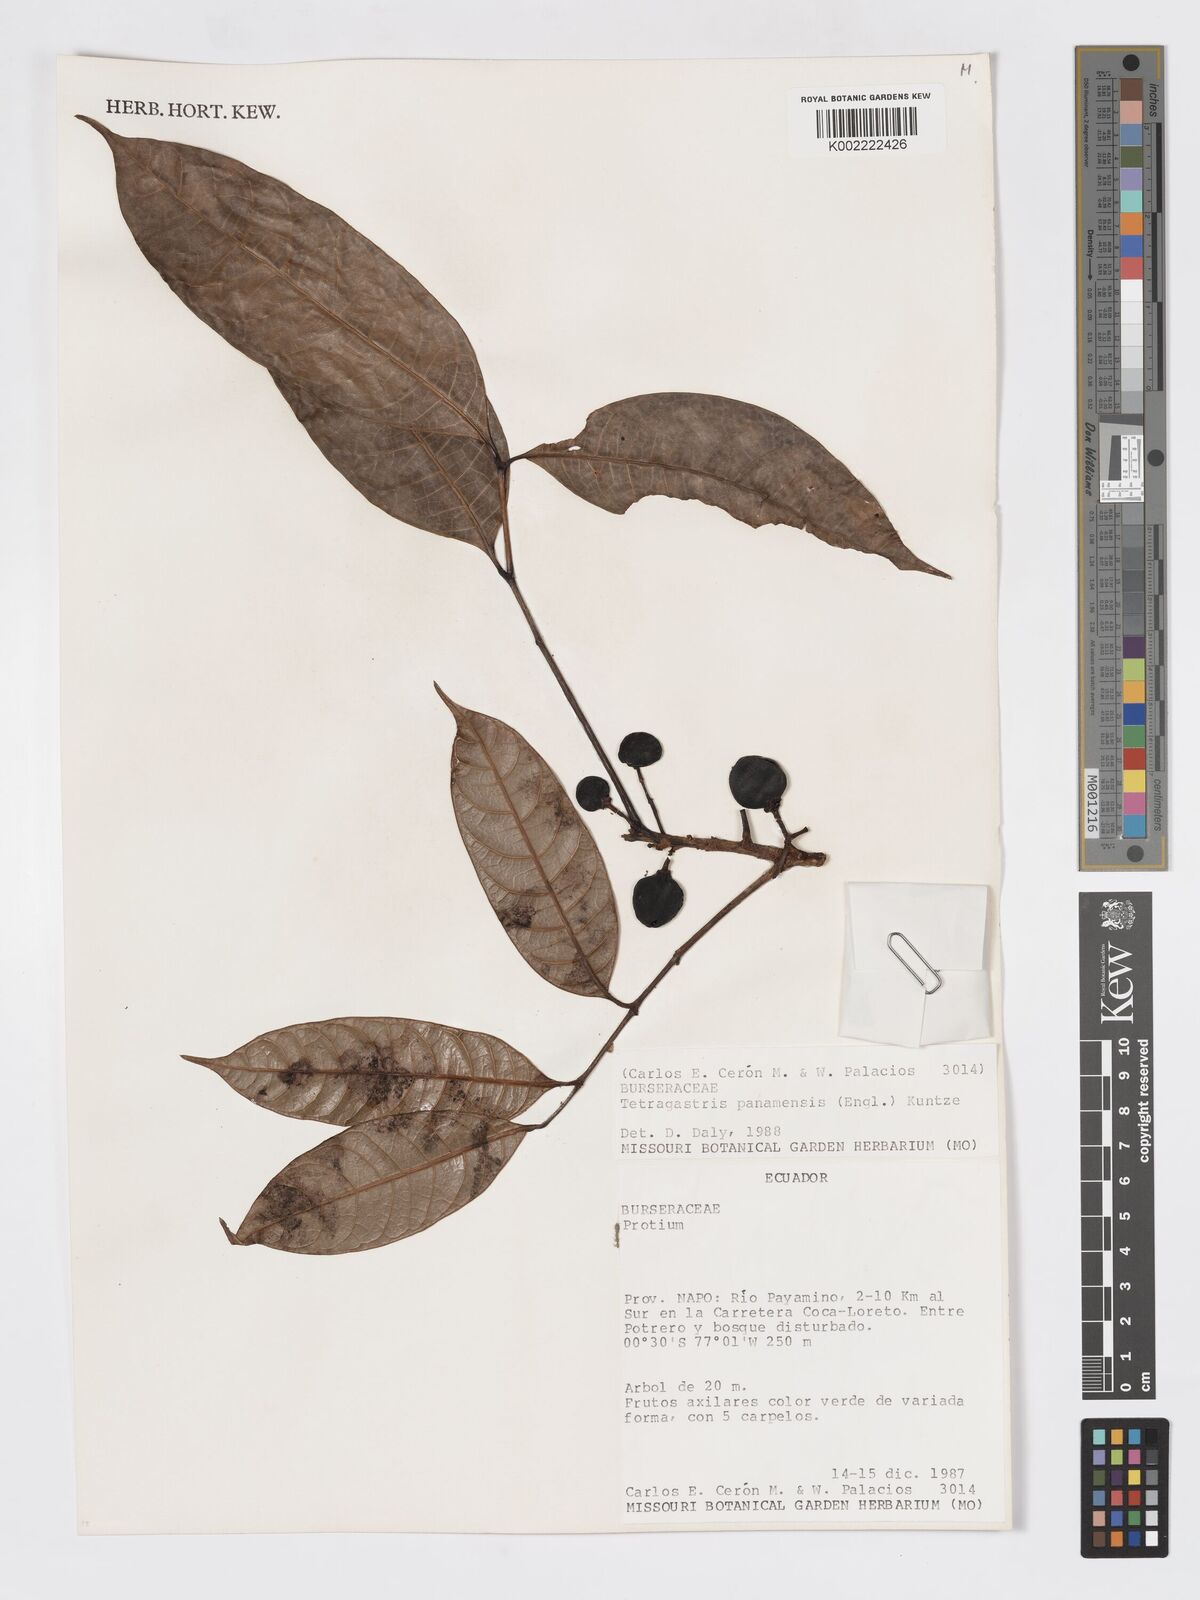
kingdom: Plantae
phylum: Tracheophyta
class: Magnoliopsida
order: Sapindales
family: Burseraceae
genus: Tetragastris
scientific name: Tetragastris panamensis
